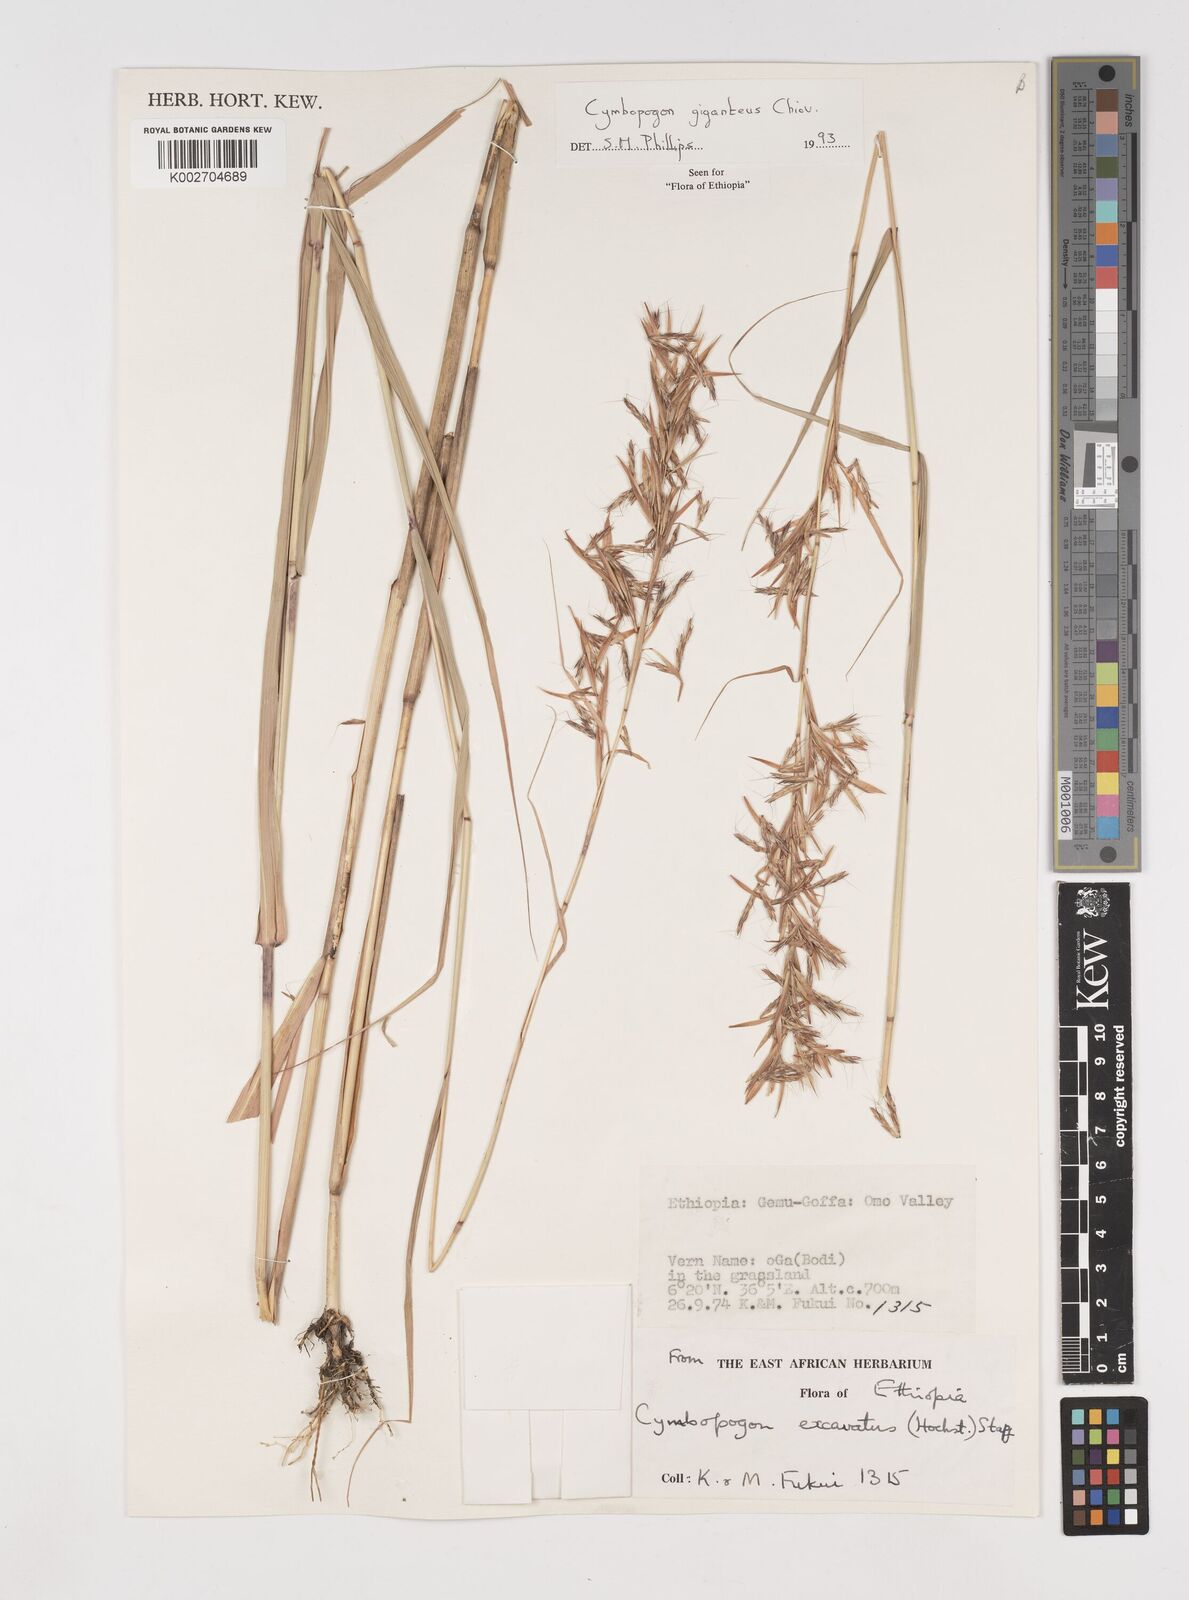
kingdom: Plantae
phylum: Tracheophyta
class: Liliopsida
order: Poales
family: Poaceae
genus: Cymbopogon
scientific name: Cymbopogon giganteus
